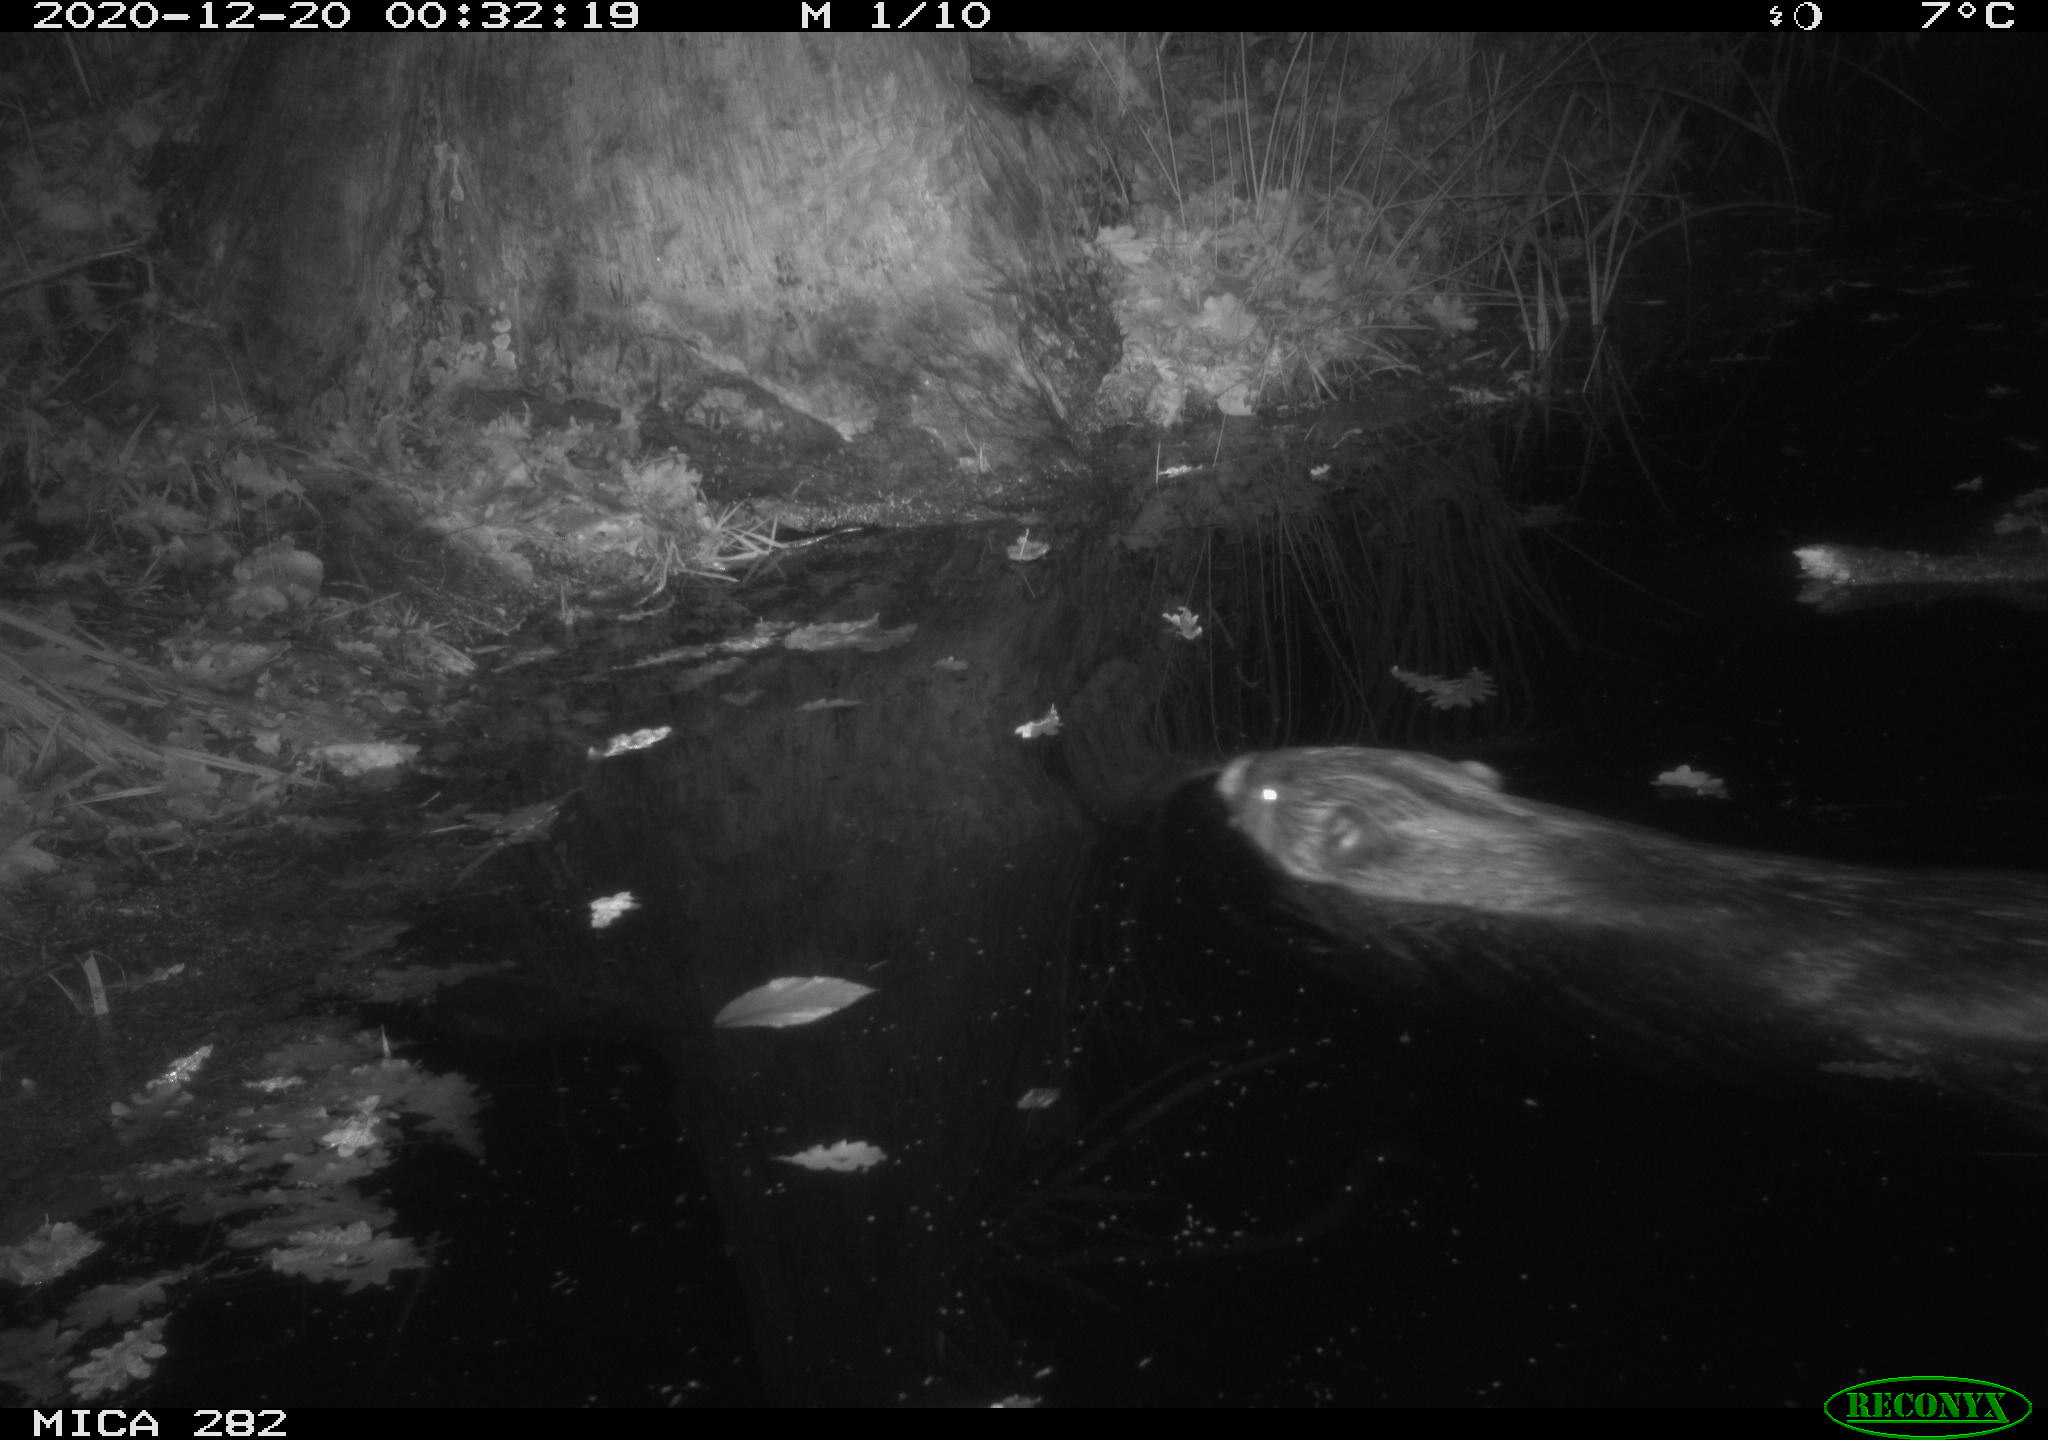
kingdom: Animalia
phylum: Chordata
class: Mammalia
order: Rodentia
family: Castoridae
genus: Castor
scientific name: Castor fiber
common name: Eurasian beaver
